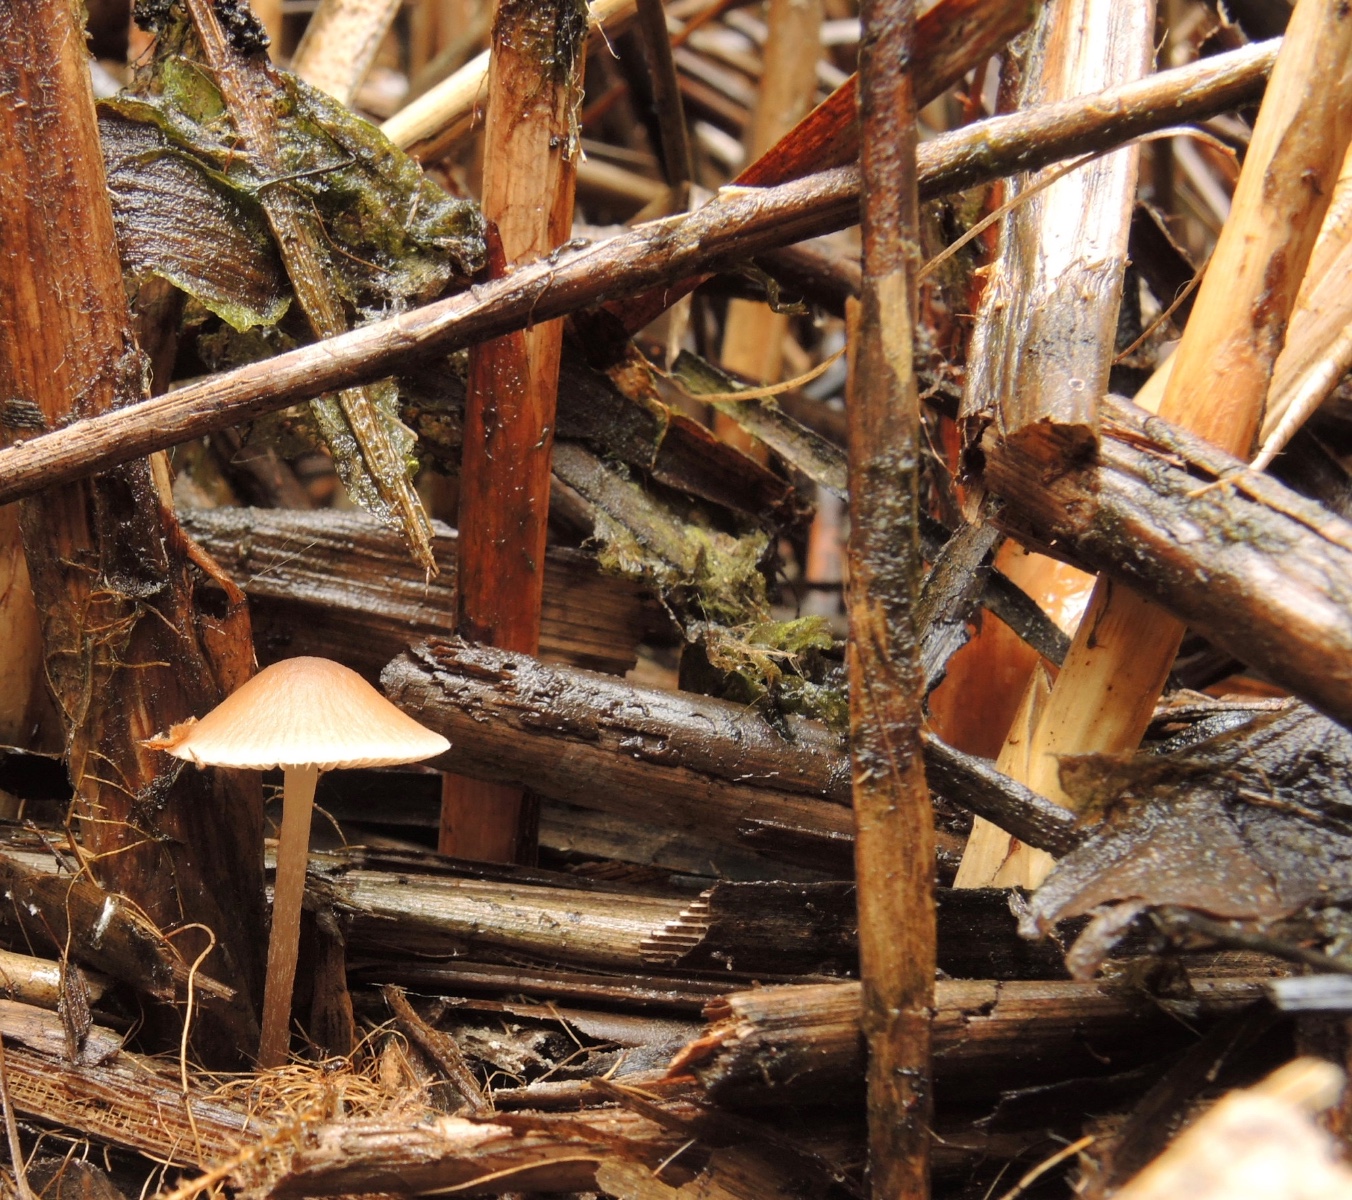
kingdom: Fungi
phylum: Basidiomycota
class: Agaricomycetes
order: Agaricales
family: Psathyrellaceae
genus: Psathyrella
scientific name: Psathyrella
